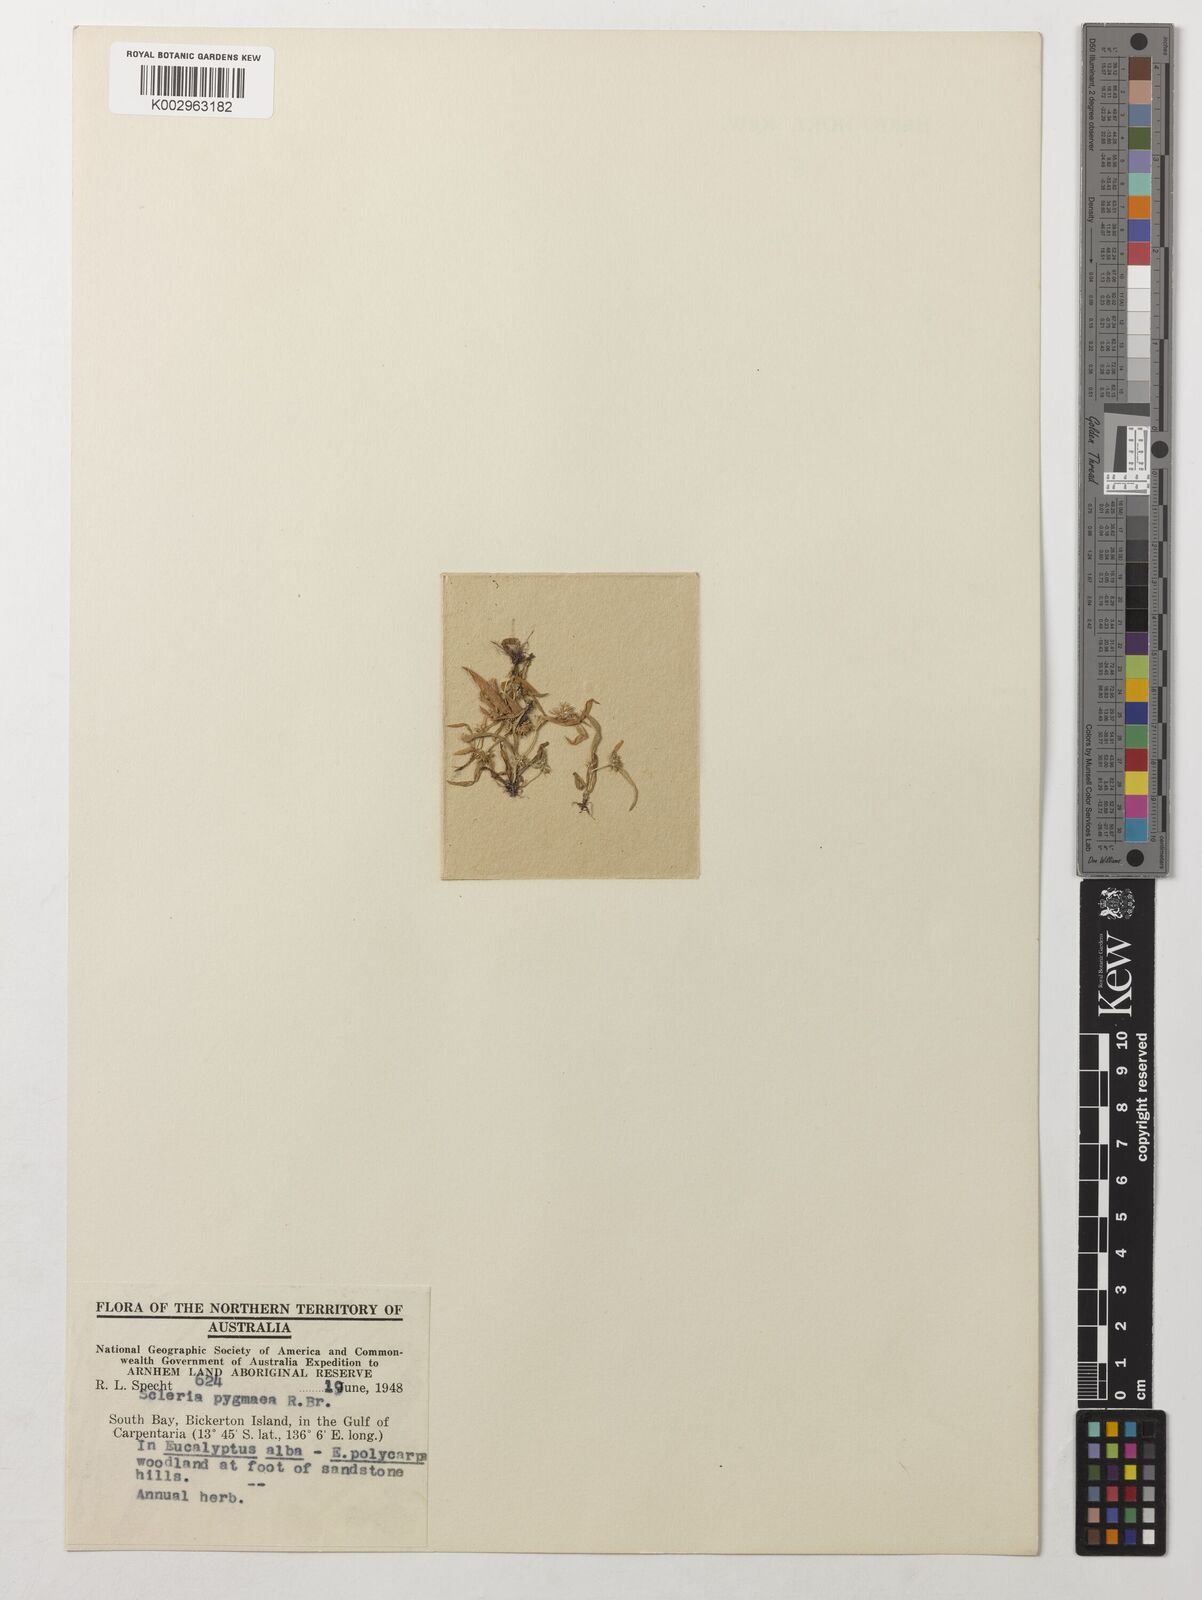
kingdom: Plantae
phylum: Tracheophyta
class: Liliopsida
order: Poales
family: Cyperaceae
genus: Diplacrum
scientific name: Diplacrum pygmaeum
